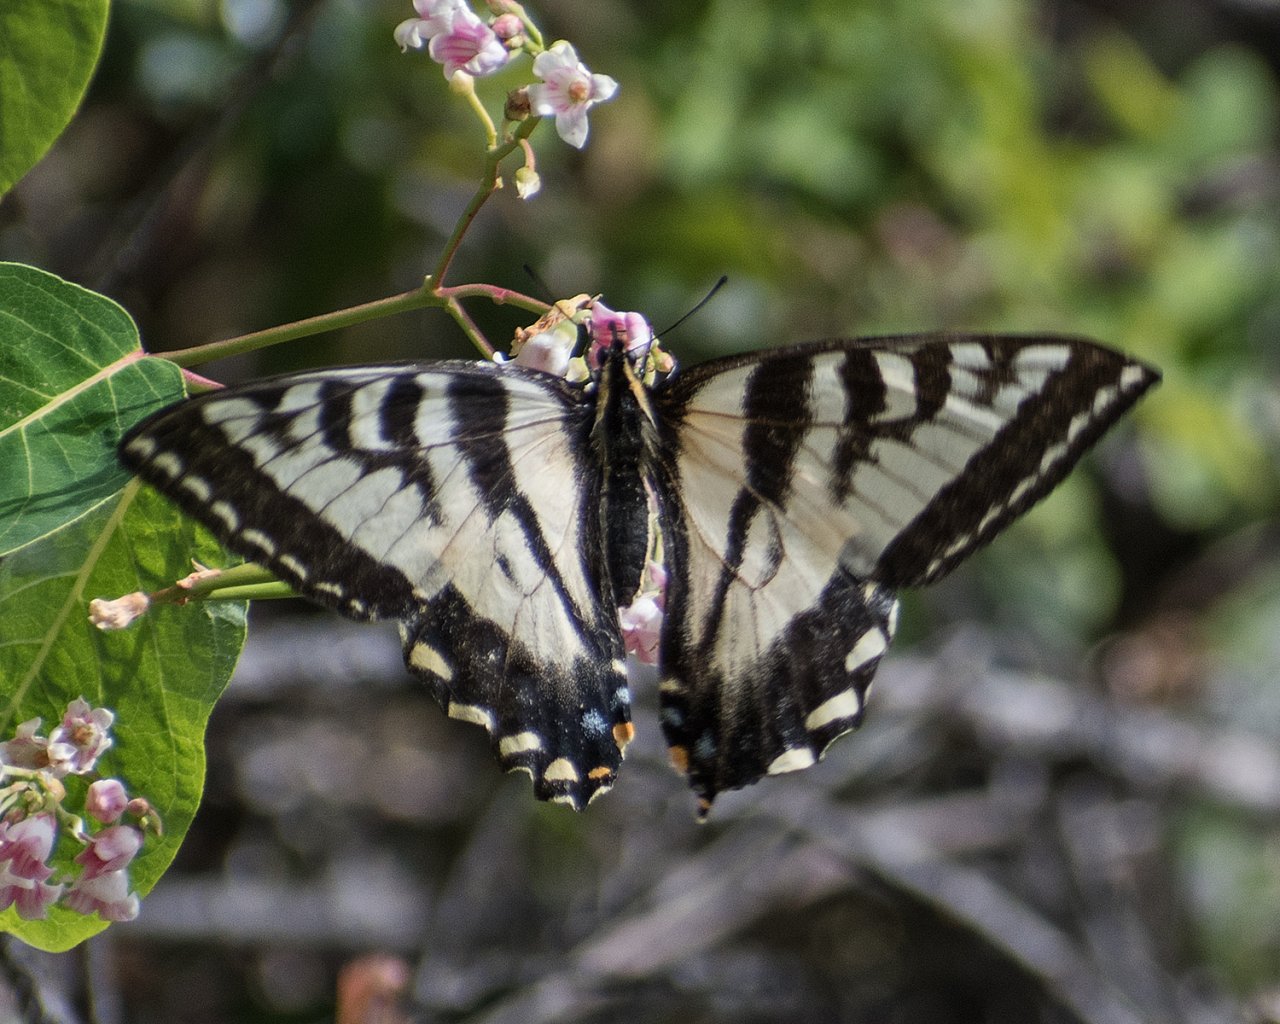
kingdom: Animalia
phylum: Arthropoda
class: Insecta
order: Lepidoptera
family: Papilionidae
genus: Pterourus
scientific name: Pterourus rutulus
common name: Western Tiger Swallowtail
